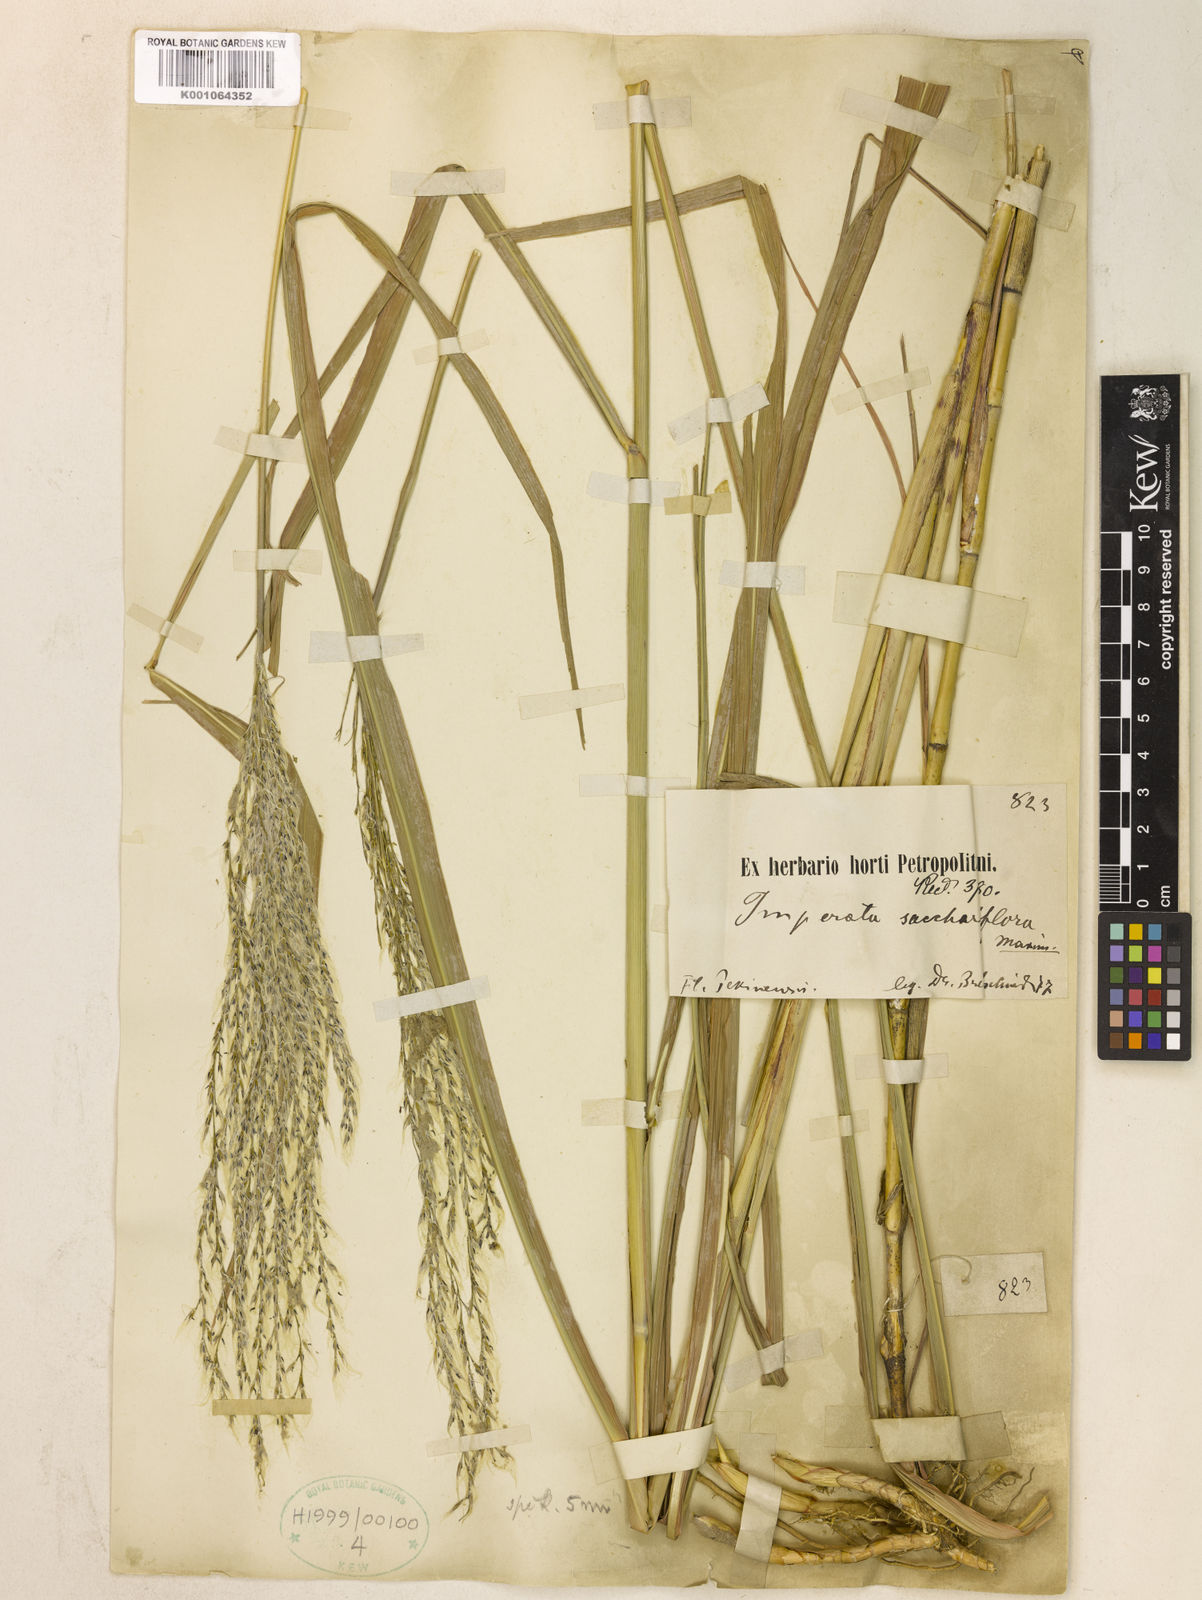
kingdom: Plantae
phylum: Tracheophyta
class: Liliopsida
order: Poales
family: Poaceae
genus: Miscanthus
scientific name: Miscanthus
